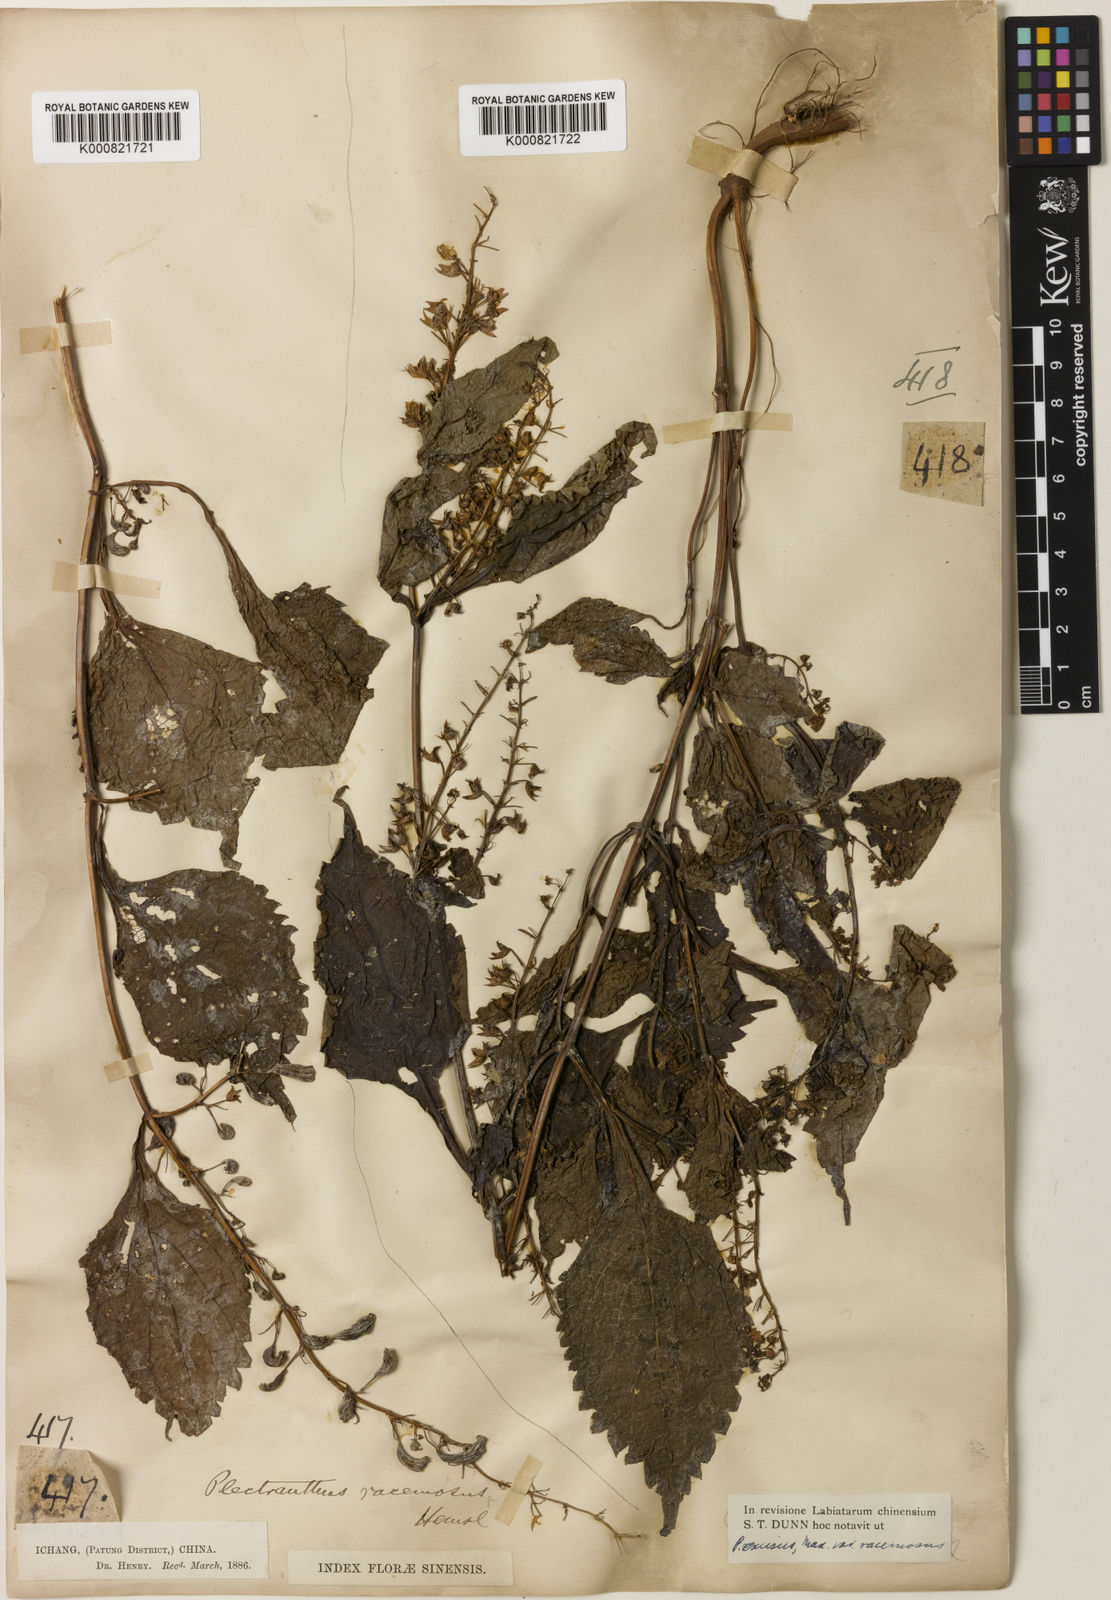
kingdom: Plantae
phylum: Tracheophyta
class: Magnoliopsida
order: Lamiales
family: Lamiaceae
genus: Isodon
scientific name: Isodon racemosus
